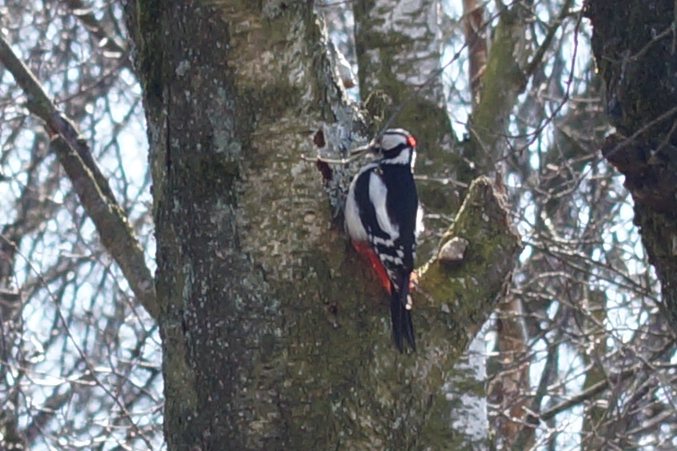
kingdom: Animalia
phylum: Chordata
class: Aves
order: Piciformes
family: Picidae
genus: Dendrocopos
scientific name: Dendrocopos major
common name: Stor flagspætte
